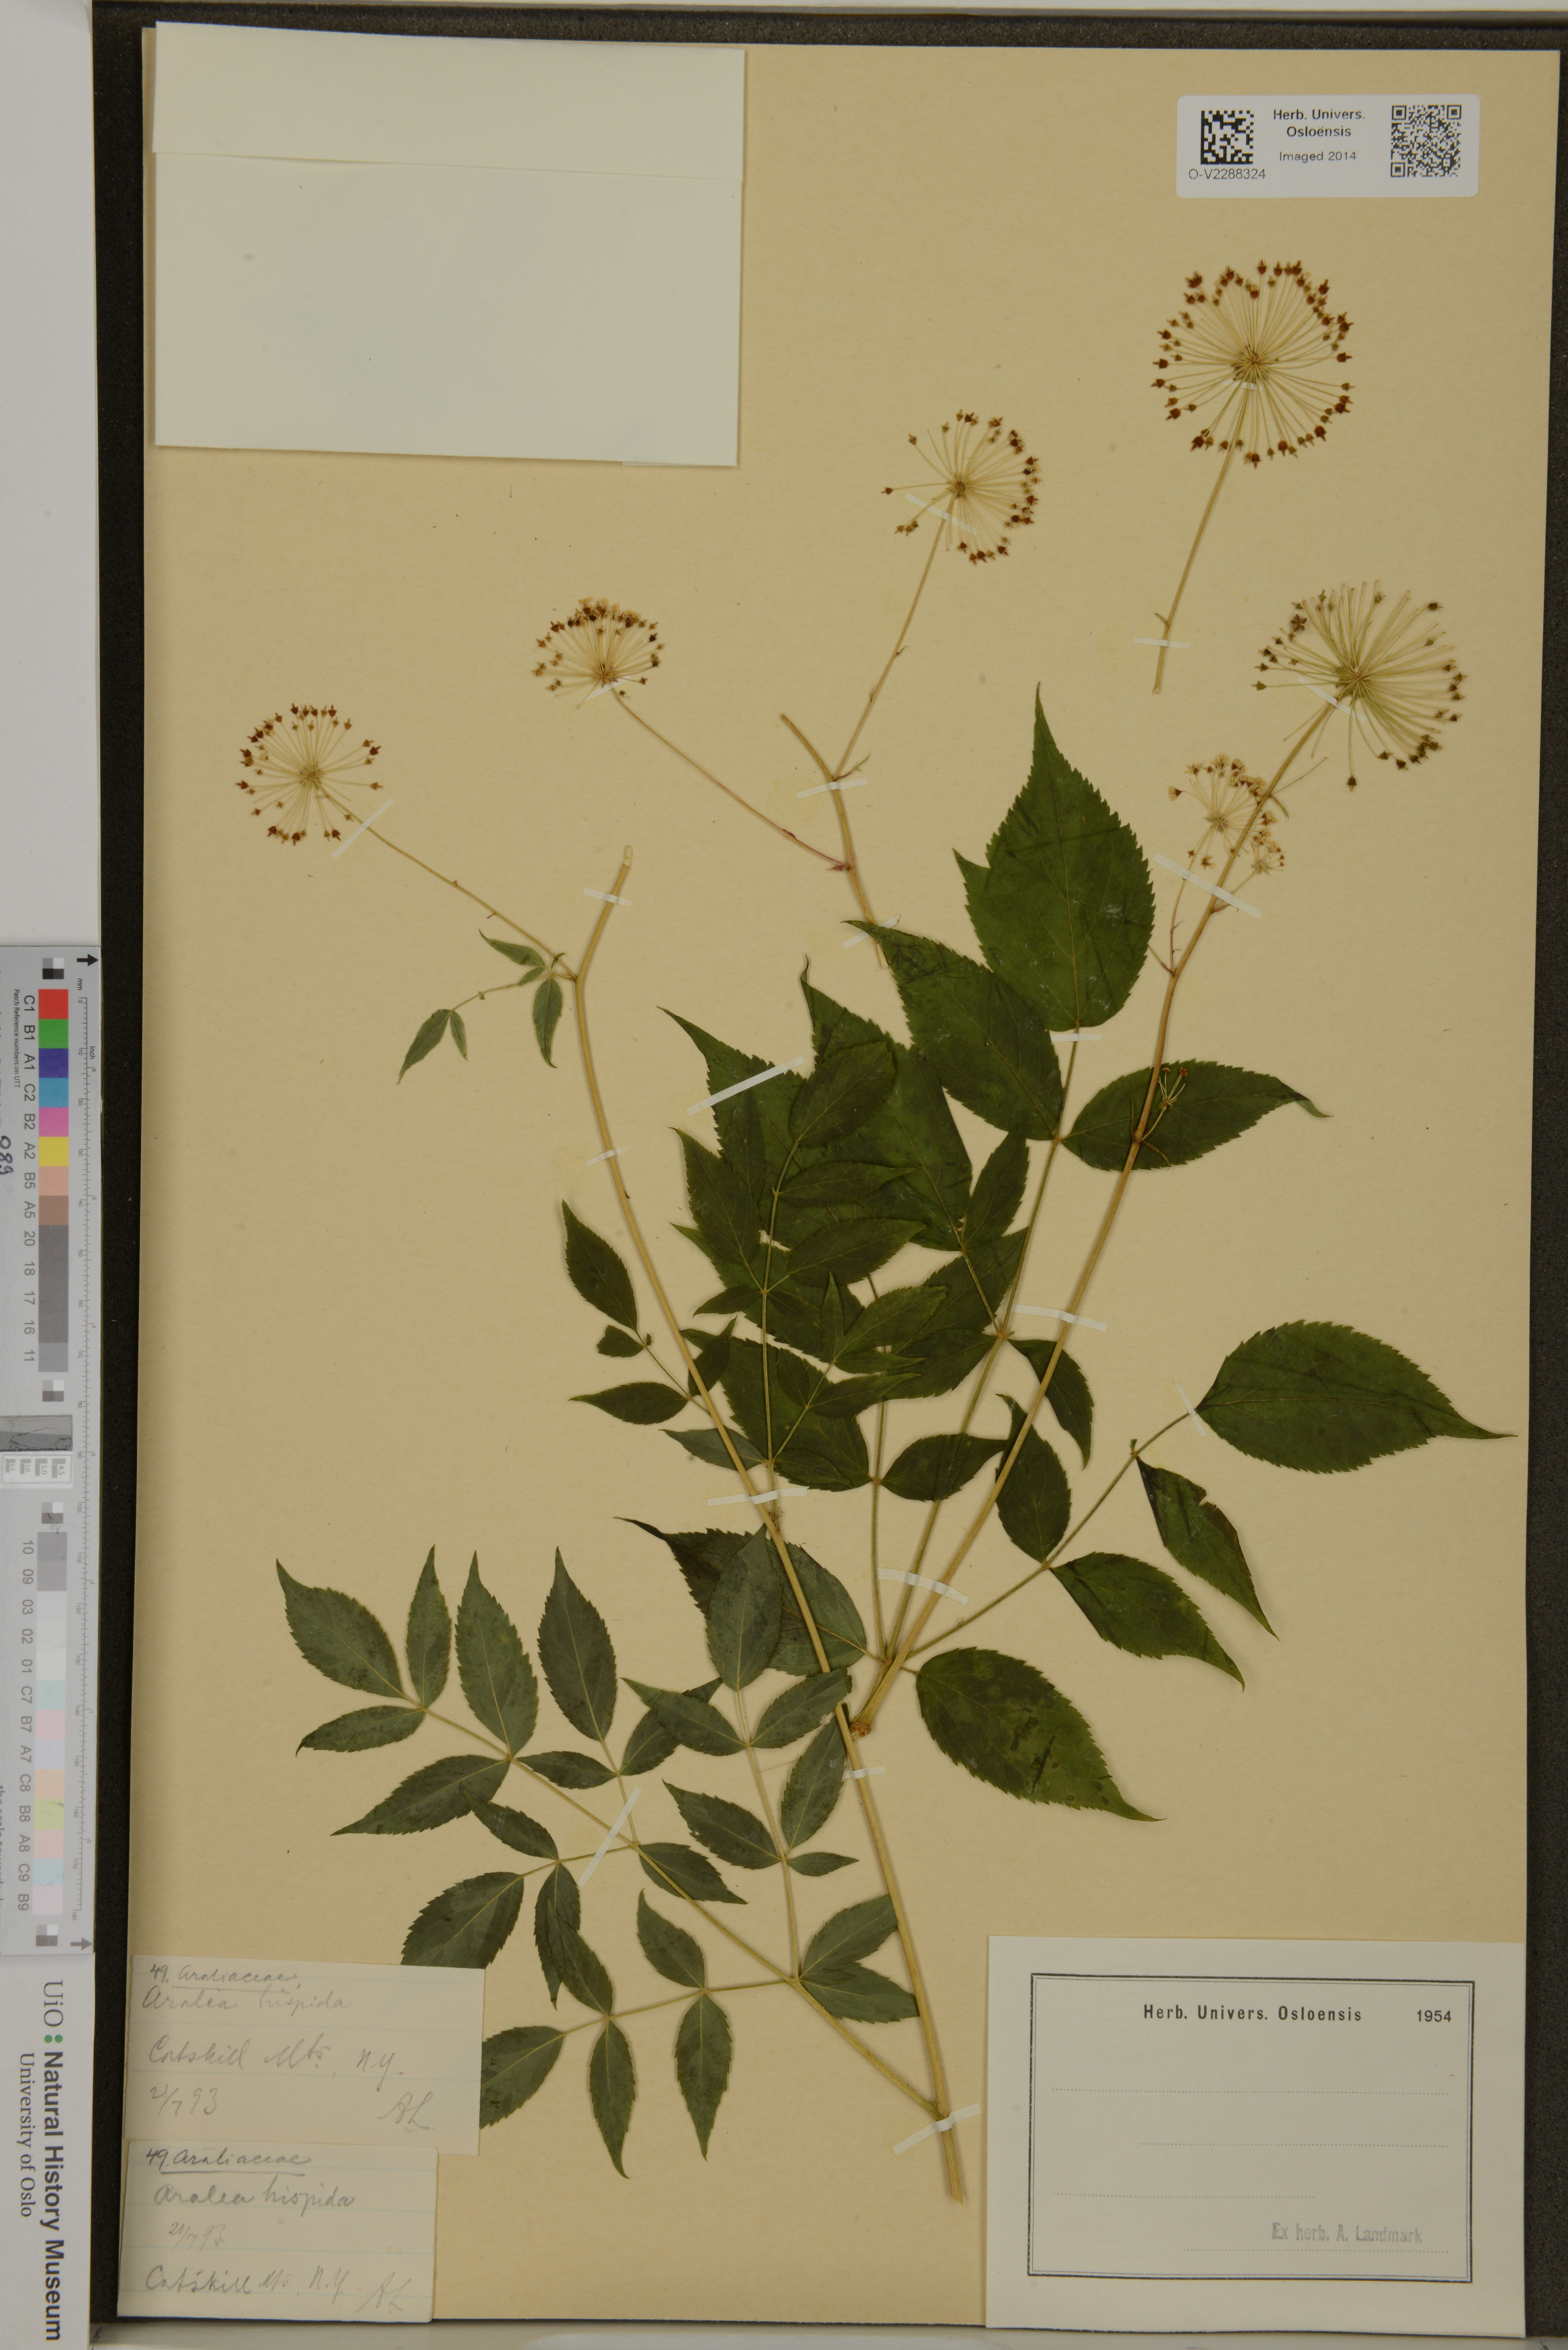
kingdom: Plantae
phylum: Tracheophyta
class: Magnoliopsida
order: Apiales
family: Araliaceae
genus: Aralia
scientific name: Aralia hispida
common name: Bristly sarsaparilla
